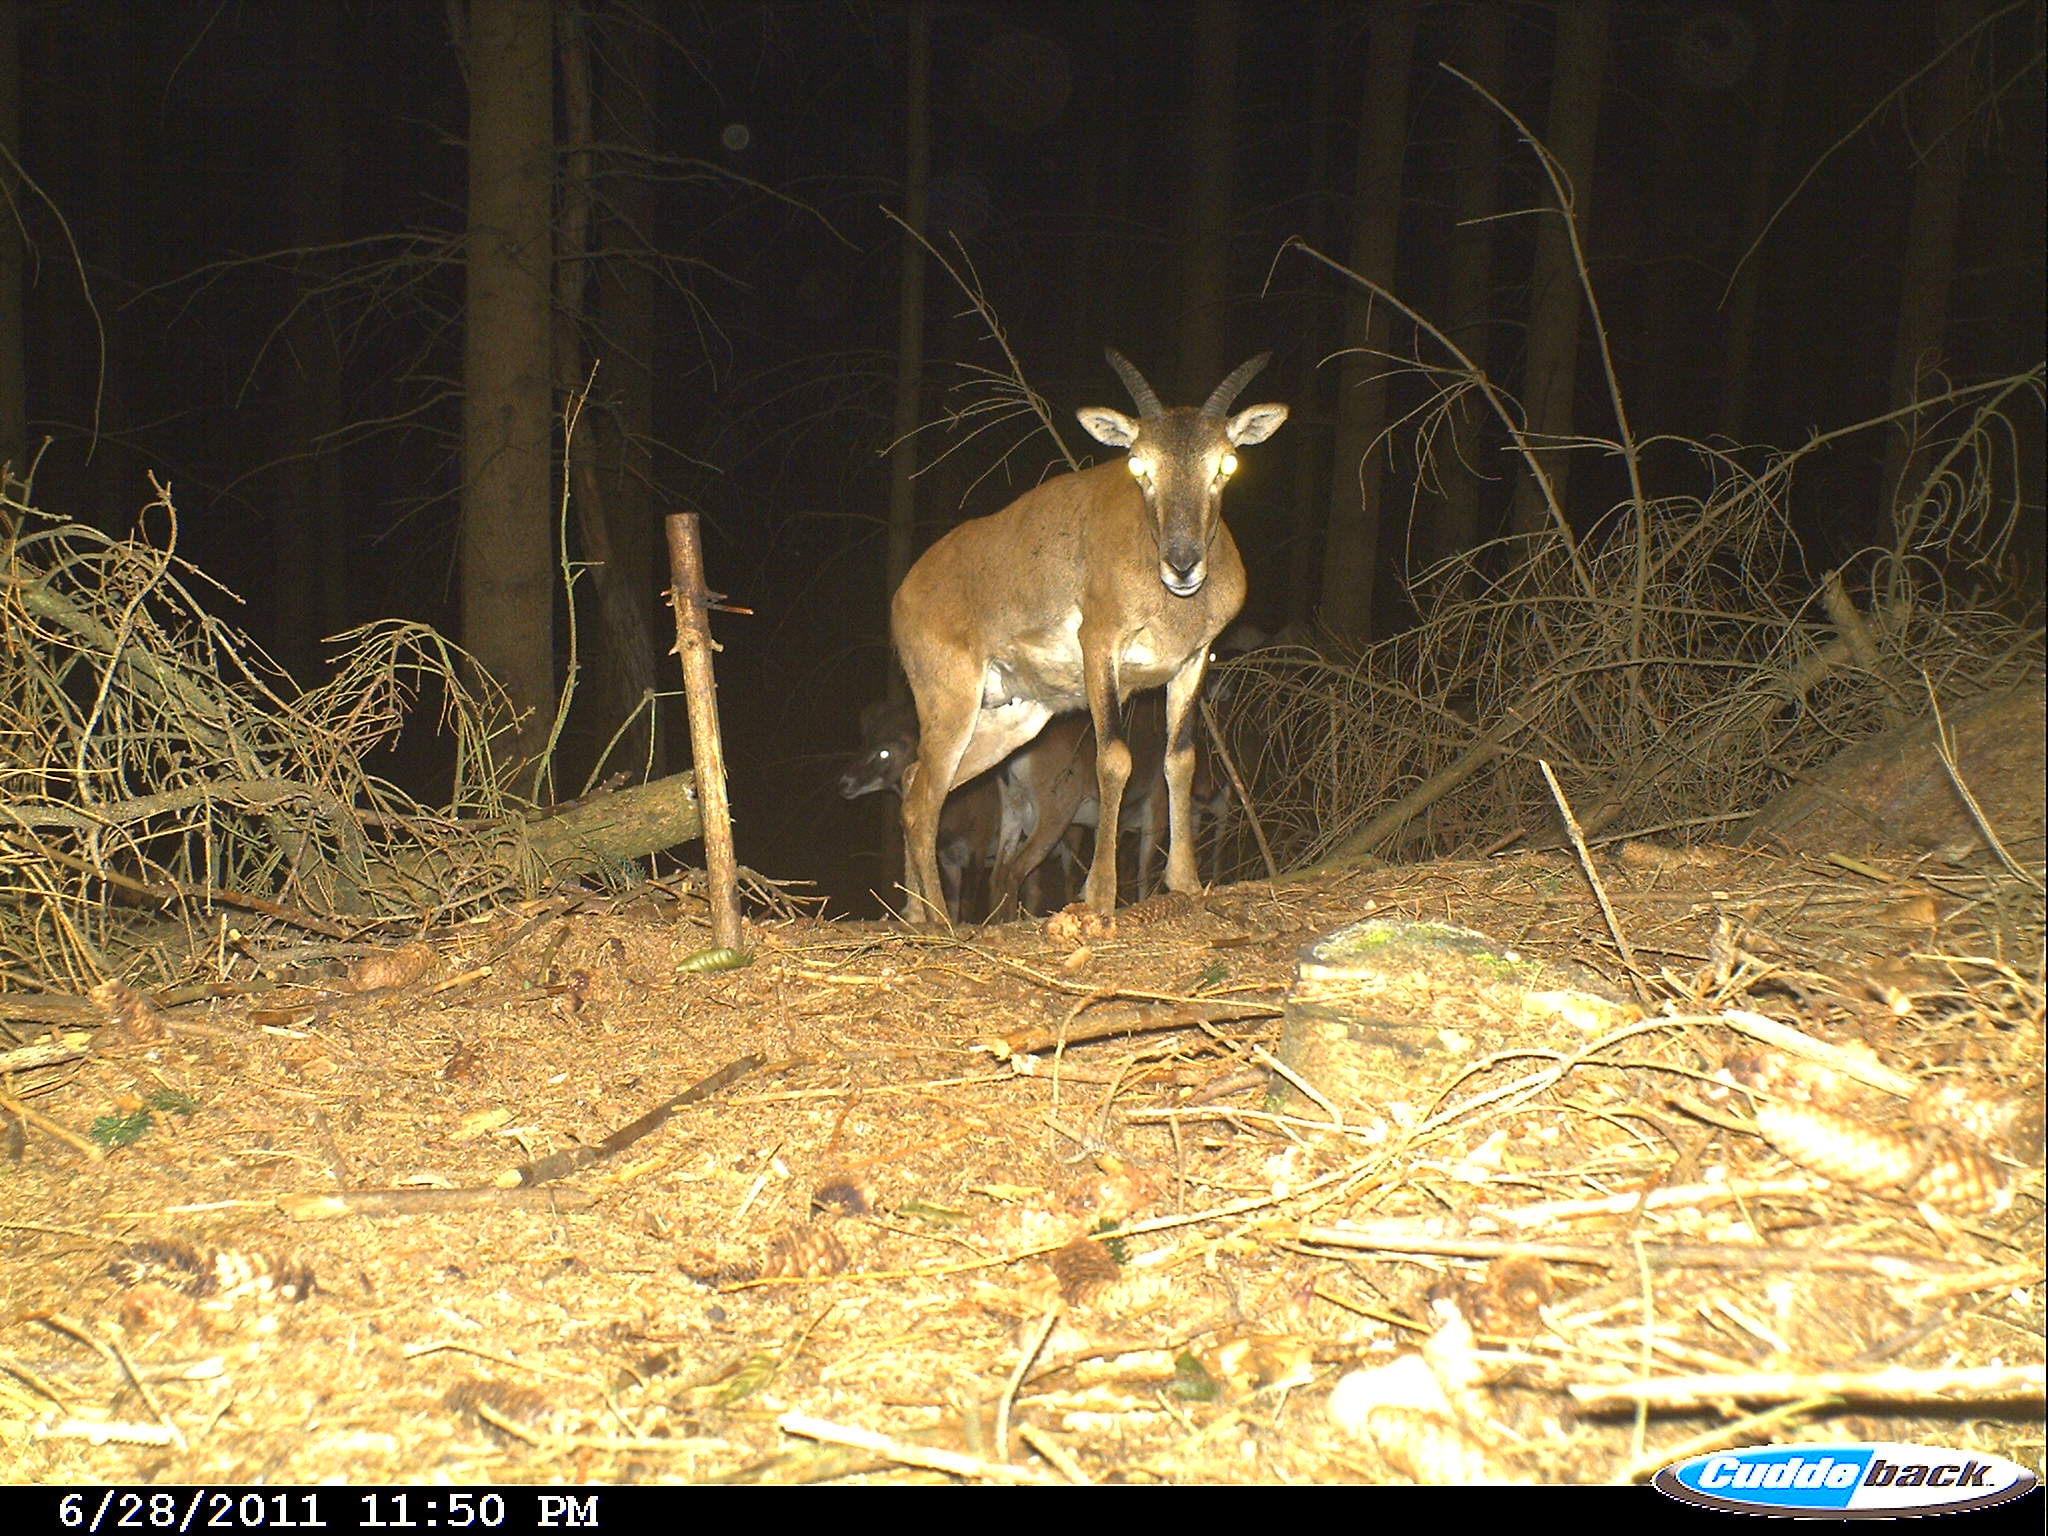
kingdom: Animalia
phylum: Chordata
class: Mammalia
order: Artiodactyla
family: Bovidae
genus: Ovis
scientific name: Ovis ammon
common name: Argali
